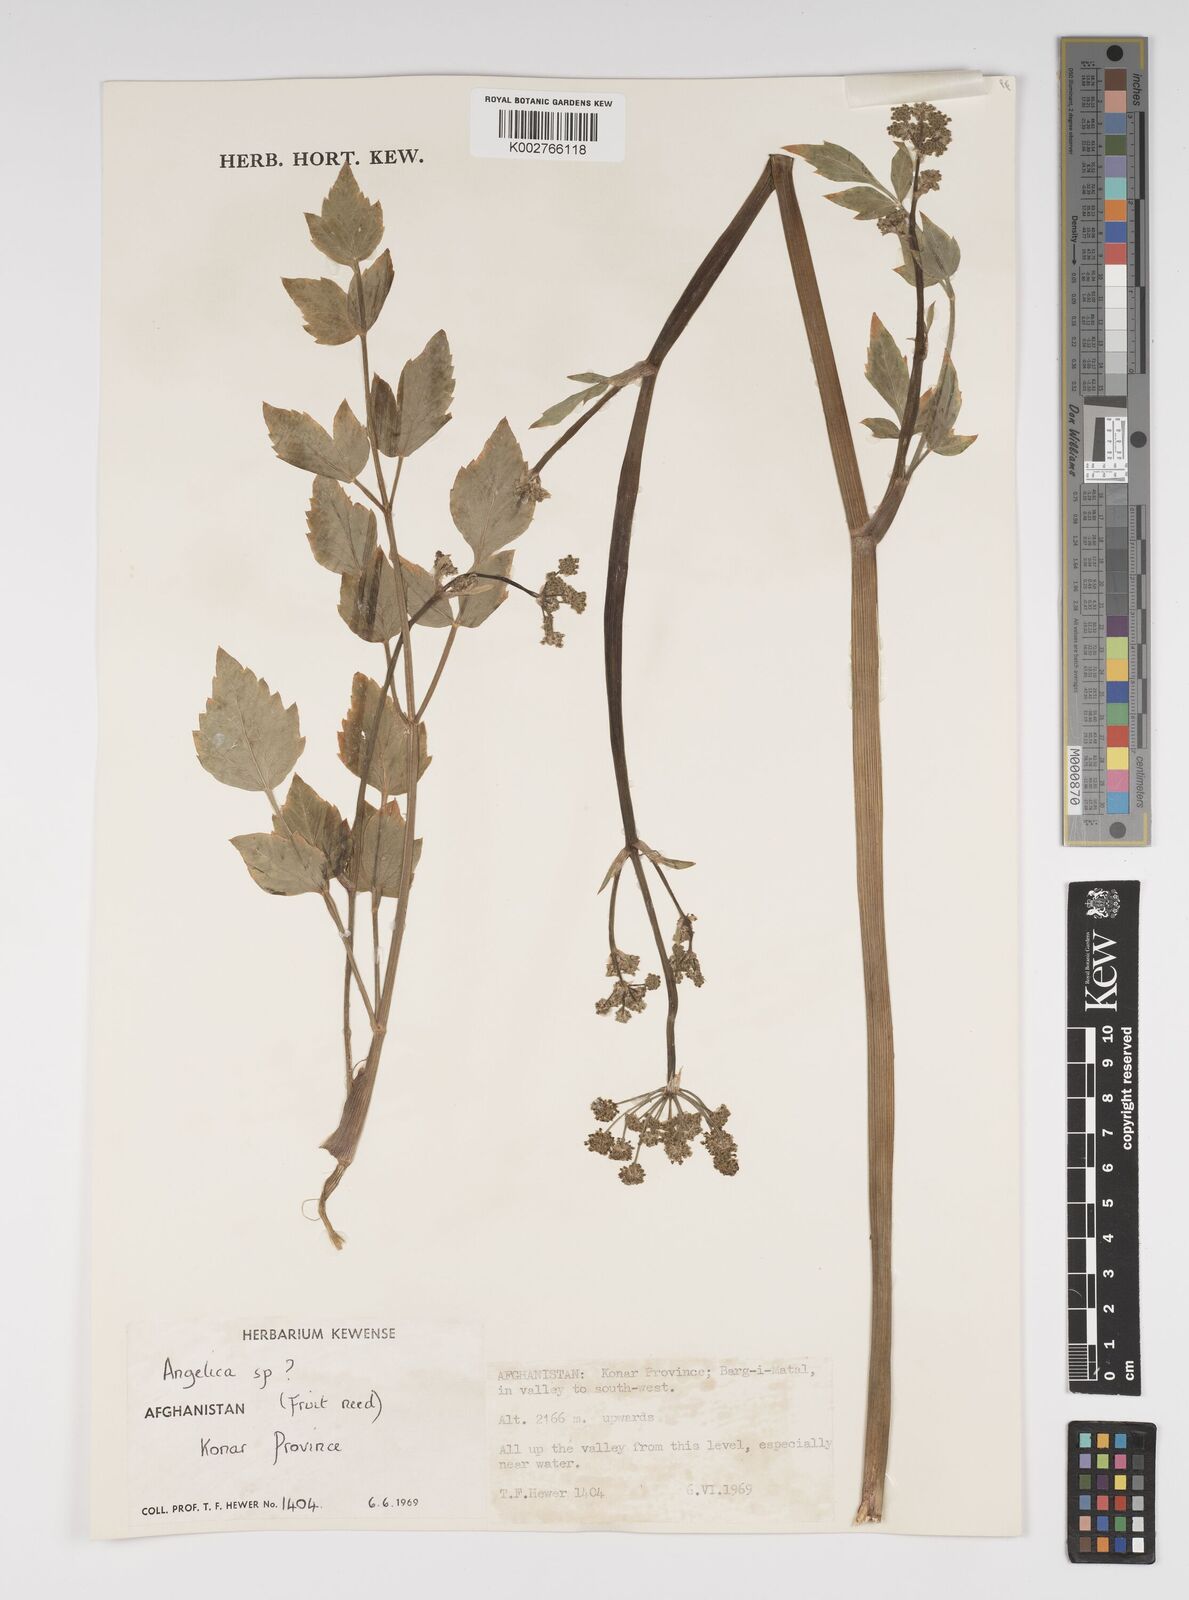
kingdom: Plantae
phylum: Tracheophyta
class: Magnoliopsida
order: Apiales
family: Apiaceae
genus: Angelica
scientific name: Angelica
